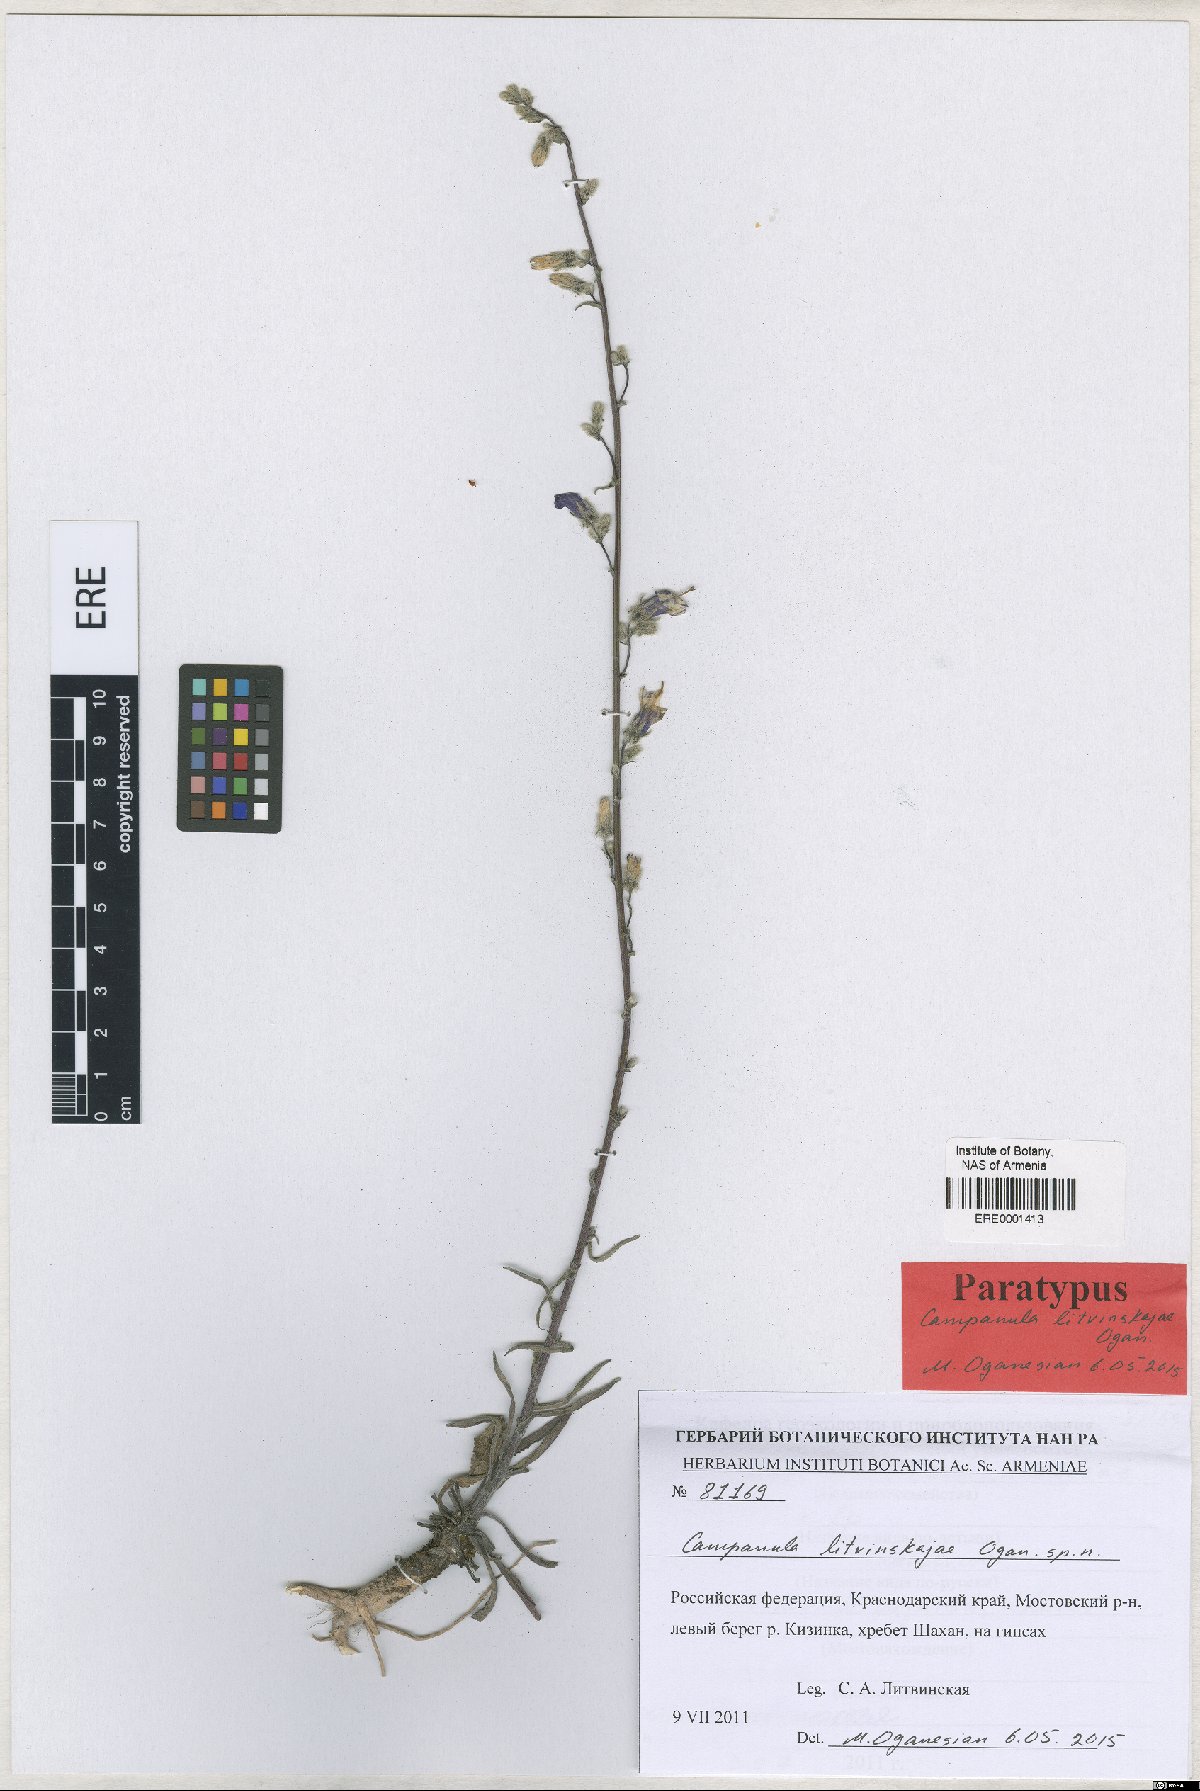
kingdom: Plantae
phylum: Tracheophyta
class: Magnoliopsida
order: Asterales
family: Campanulaceae
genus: Campanula
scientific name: Campanula litvinskajae
